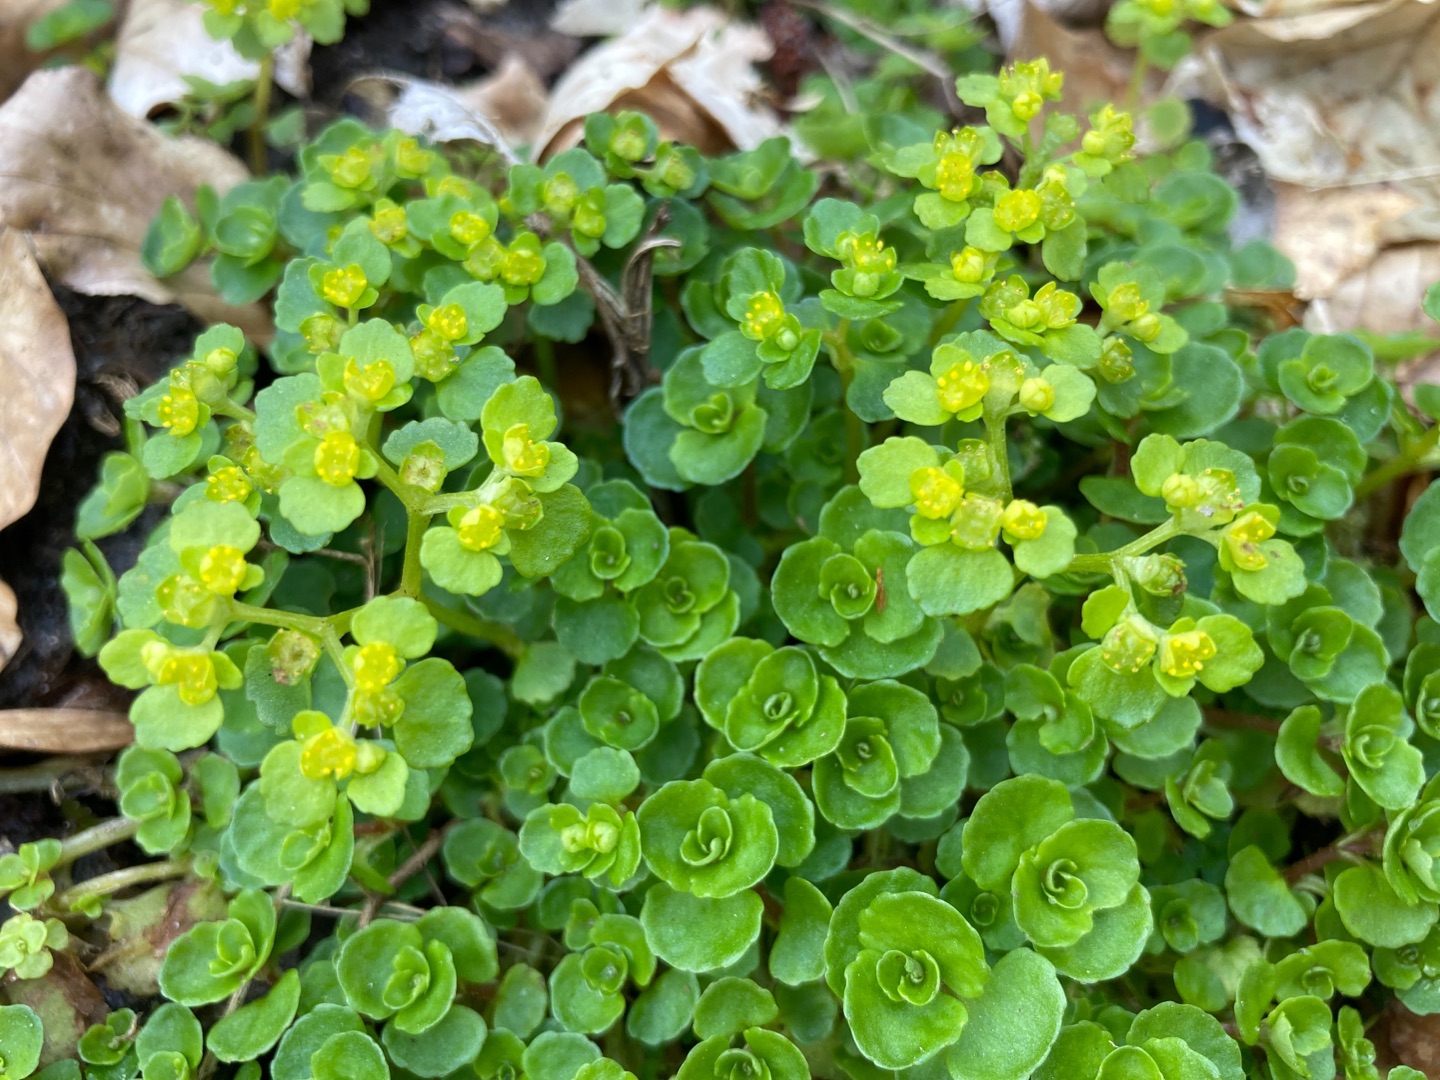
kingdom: Plantae
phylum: Tracheophyta
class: Magnoliopsida
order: Saxifragales
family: Saxifragaceae
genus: Chrysosplenium
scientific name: Chrysosplenium oppositifolium
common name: Småbladet milturt
